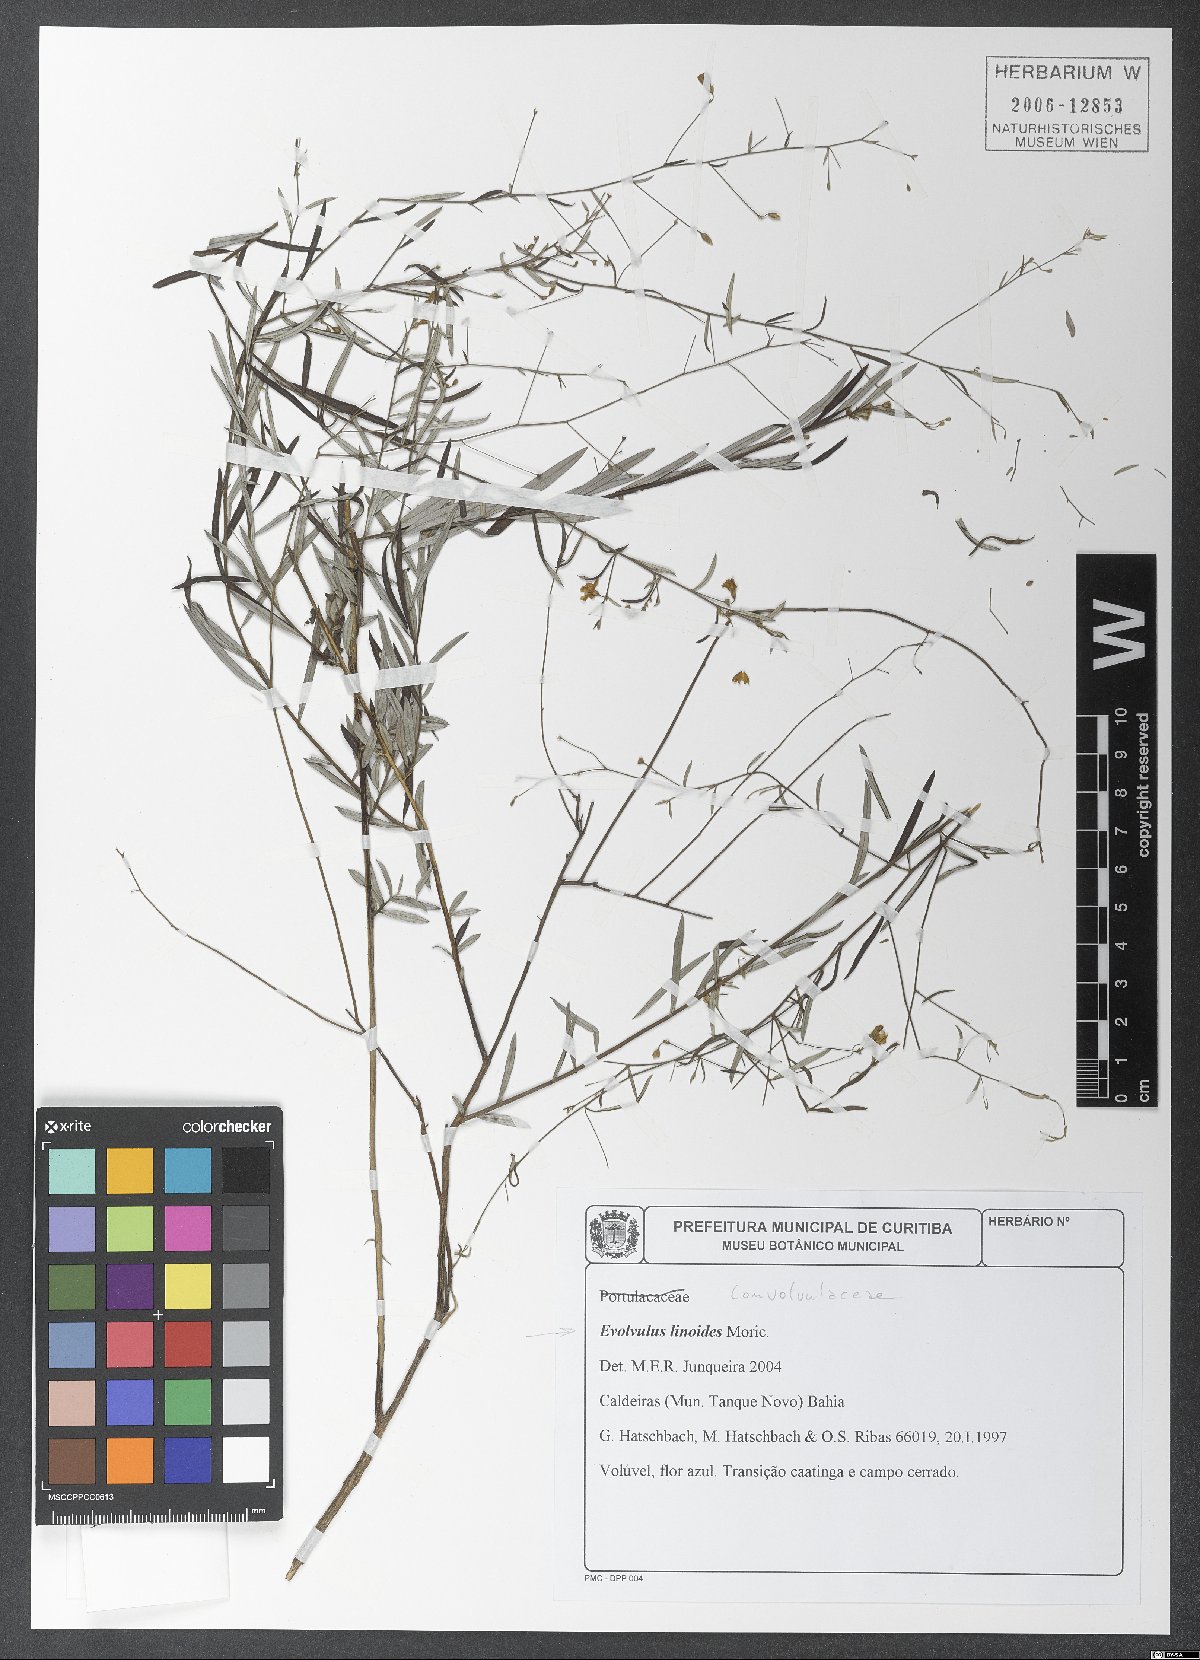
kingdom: Plantae
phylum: Tracheophyta
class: Magnoliopsida
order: Solanales
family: Convolvulaceae
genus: Evolvulus
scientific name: Evolvulus linoides
